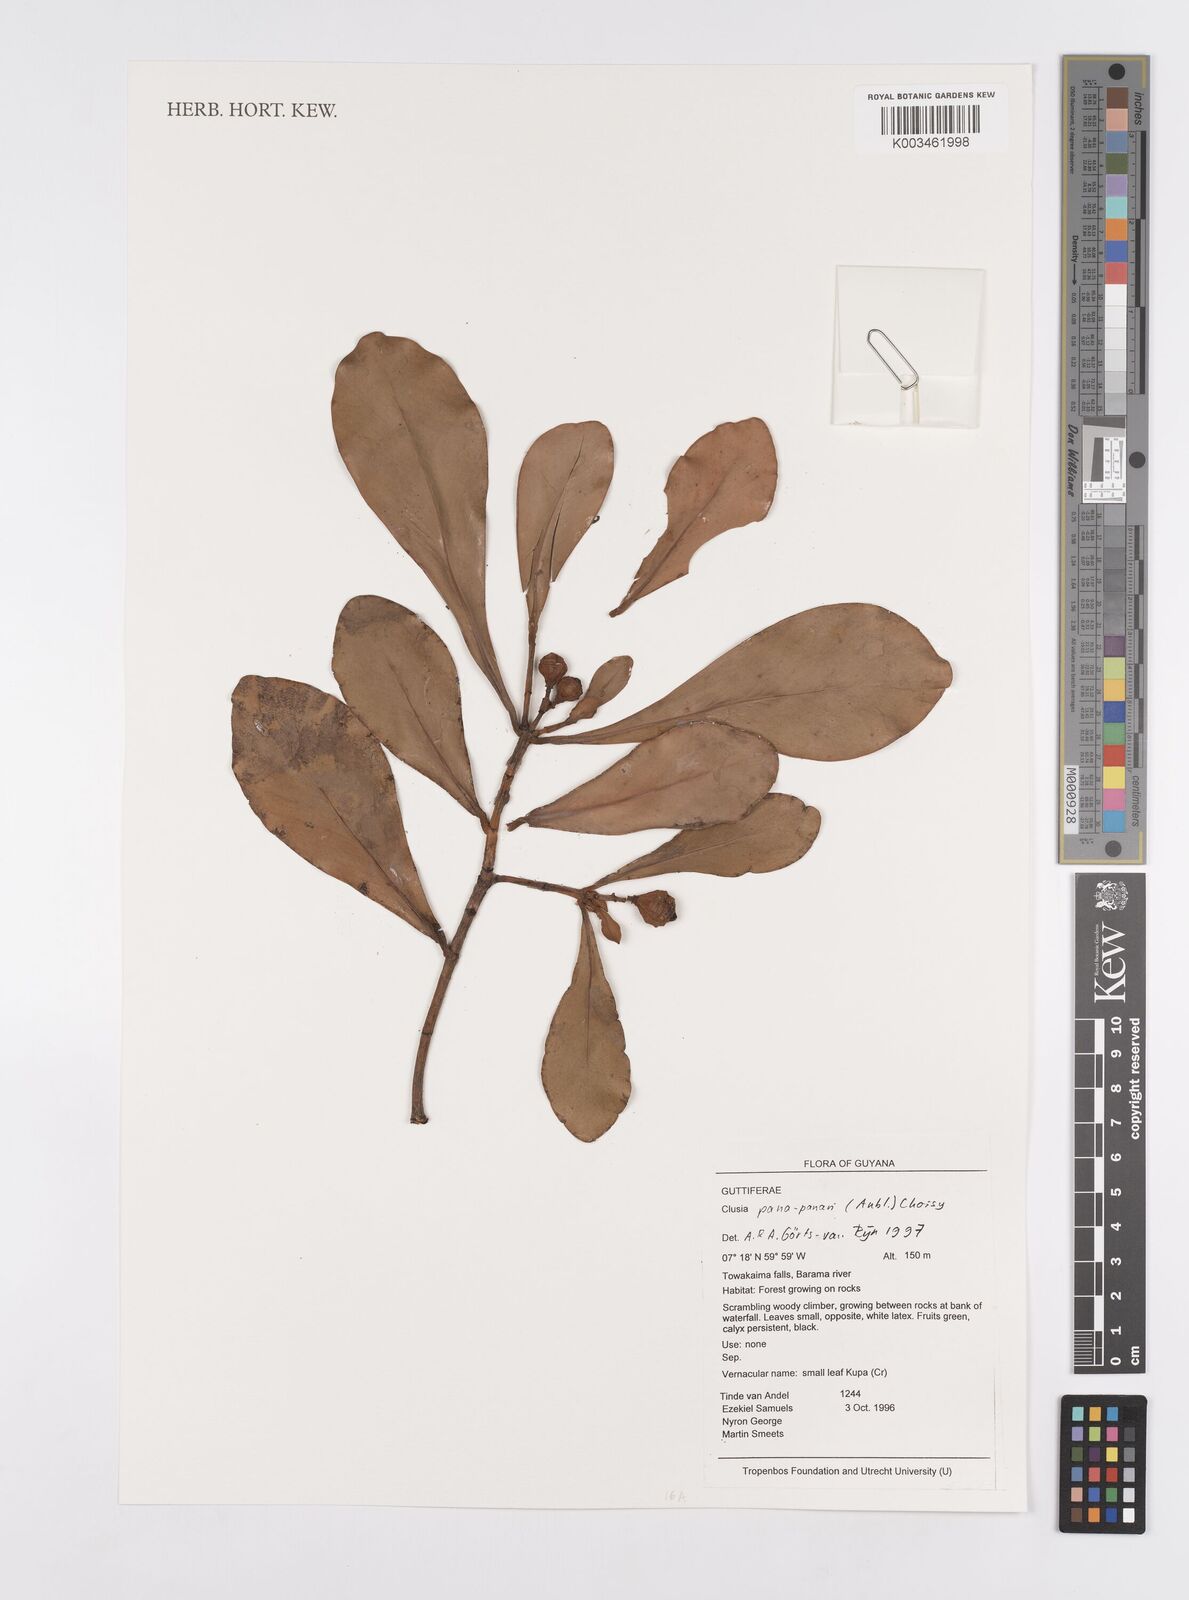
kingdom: Plantae
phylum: Tracheophyta
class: Magnoliopsida
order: Malpighiales
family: Clusiaceae
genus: Clusia
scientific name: Clusia panapanari
